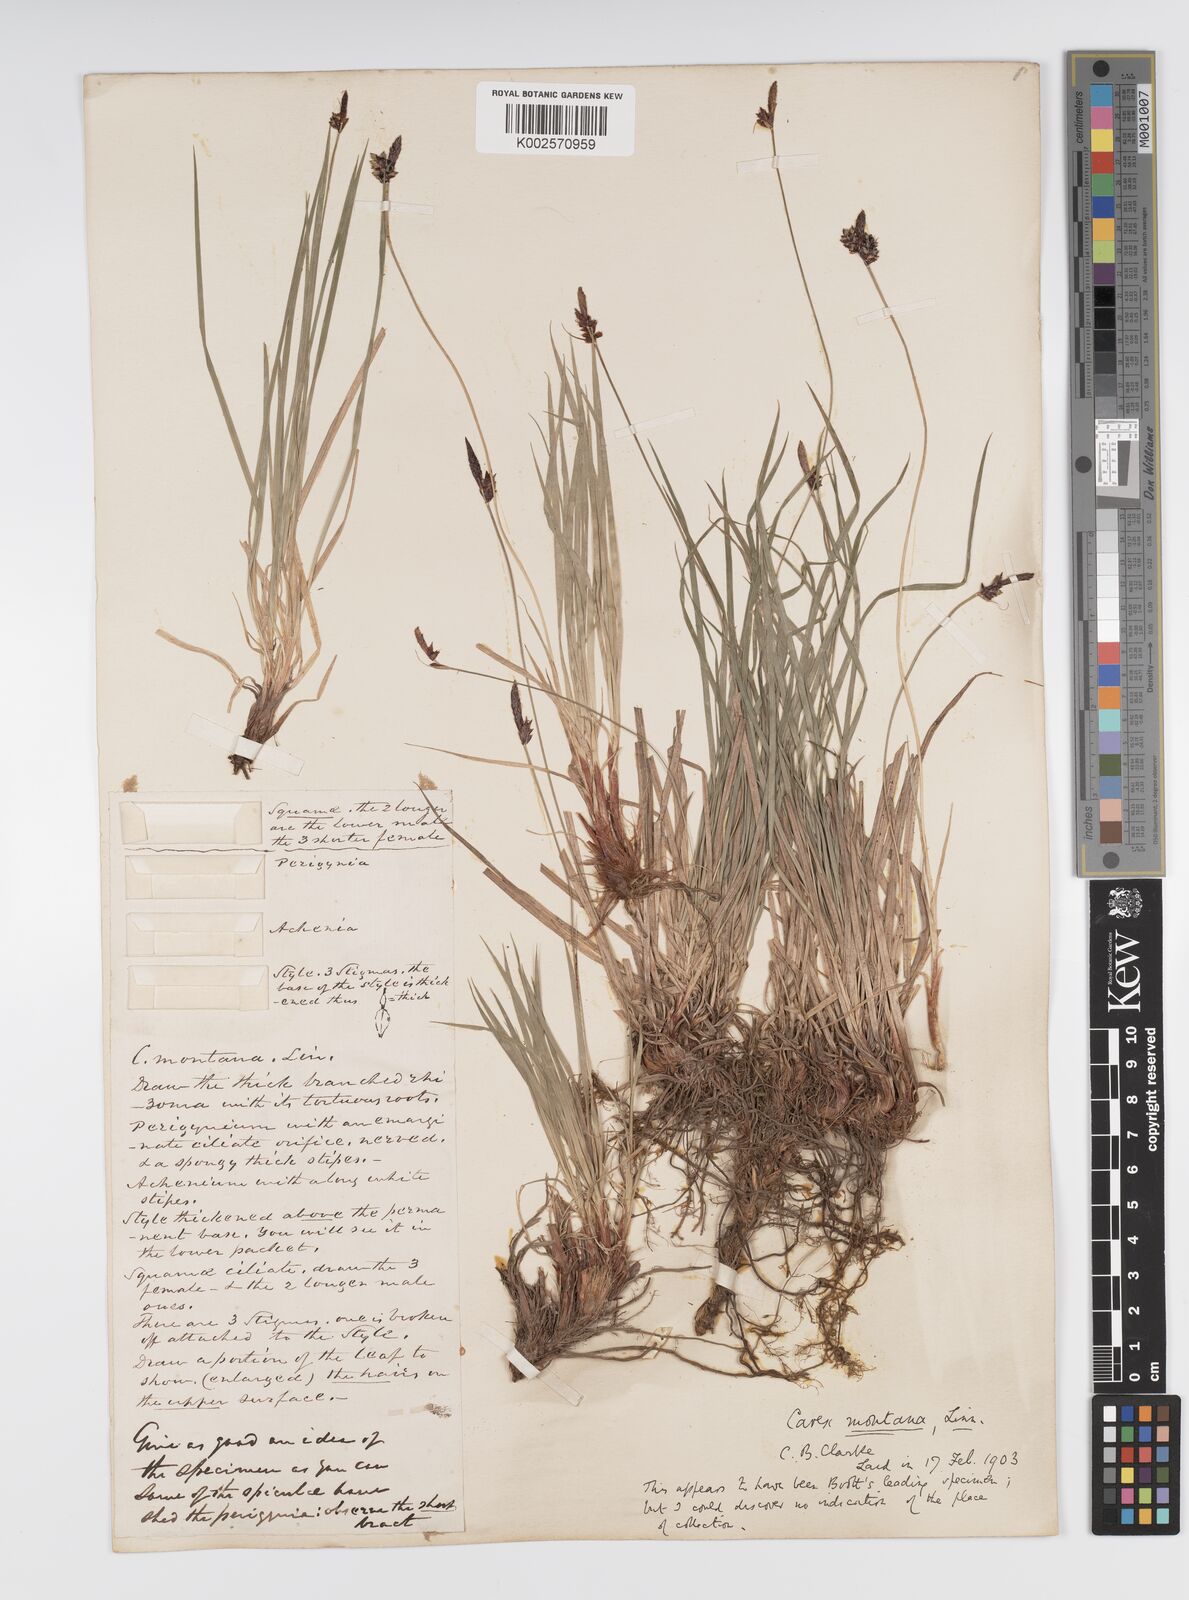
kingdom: Plantae
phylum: Tracheophyta
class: Liliopsida
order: Poales
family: Cyperaceae
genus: Carex
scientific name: Carex montana
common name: Soft-leaved sedge
